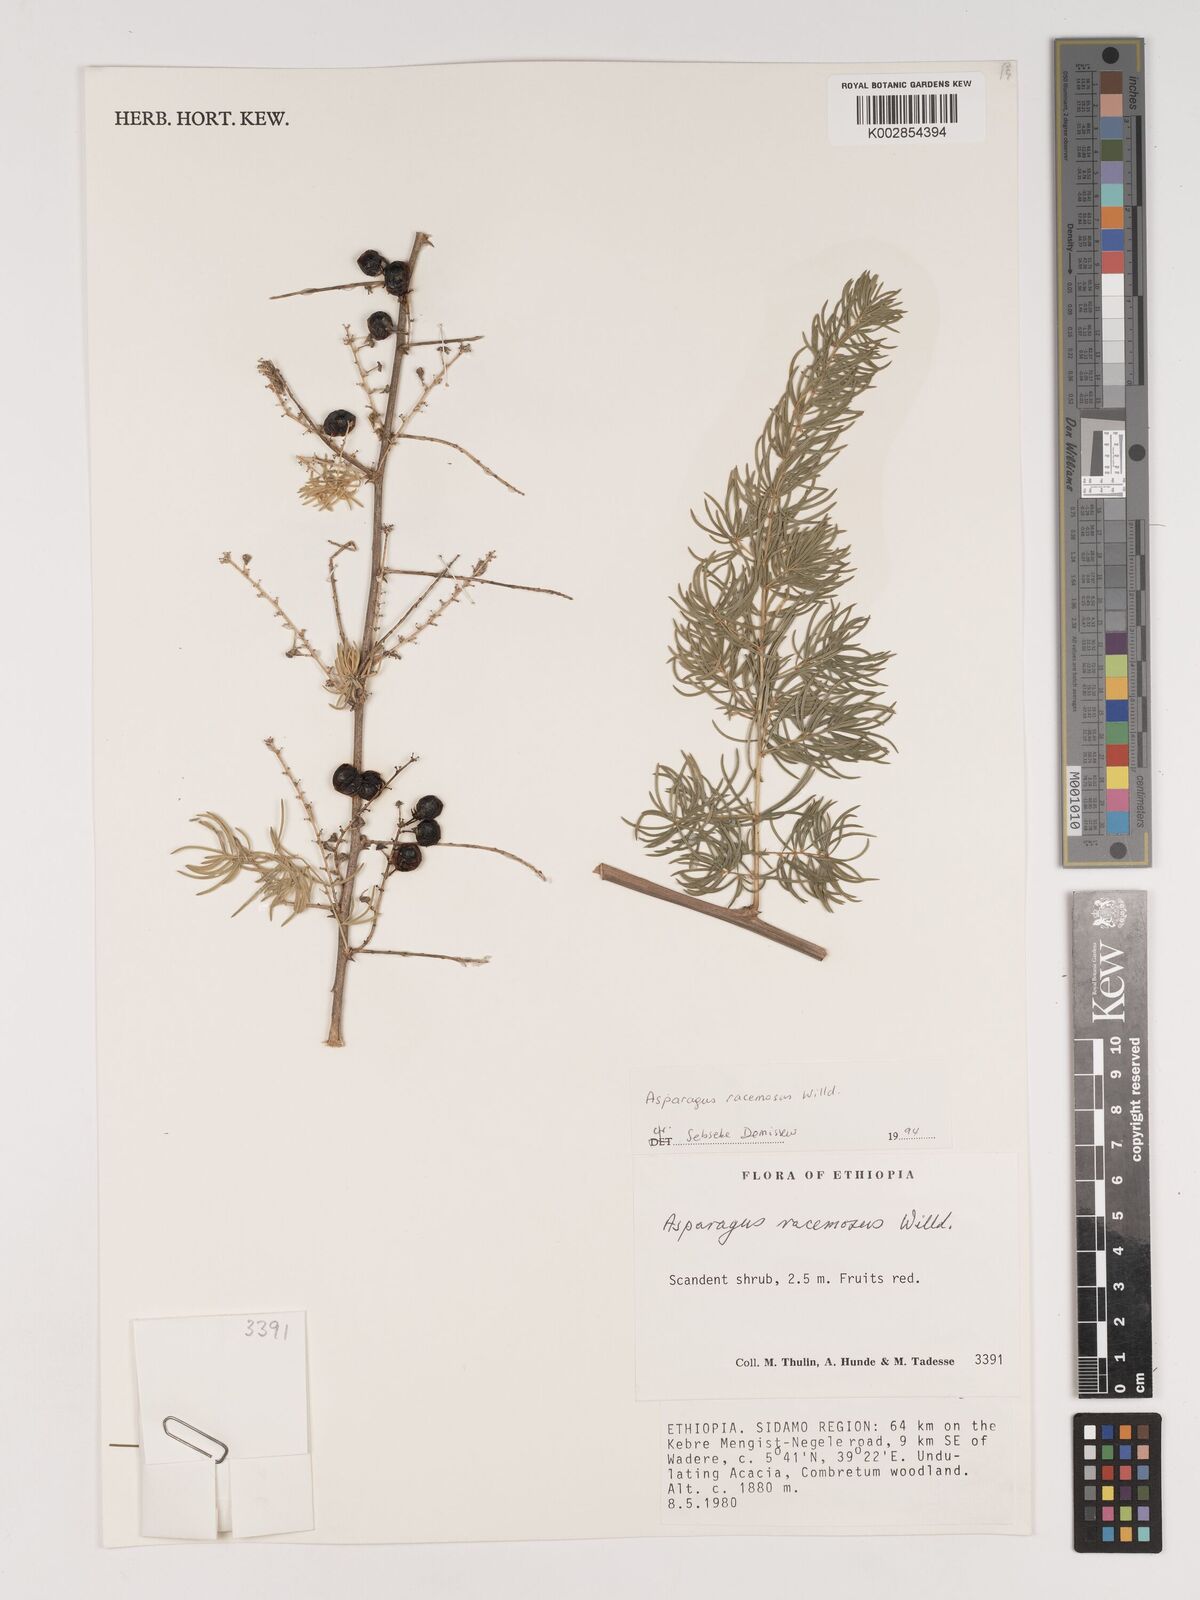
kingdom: Plantae
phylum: Tracheophyta
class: Liliopsida
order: Asparagales
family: Asparagaceae
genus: Asparagus
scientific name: Asparagus racemosus
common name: Asparagus-fern
